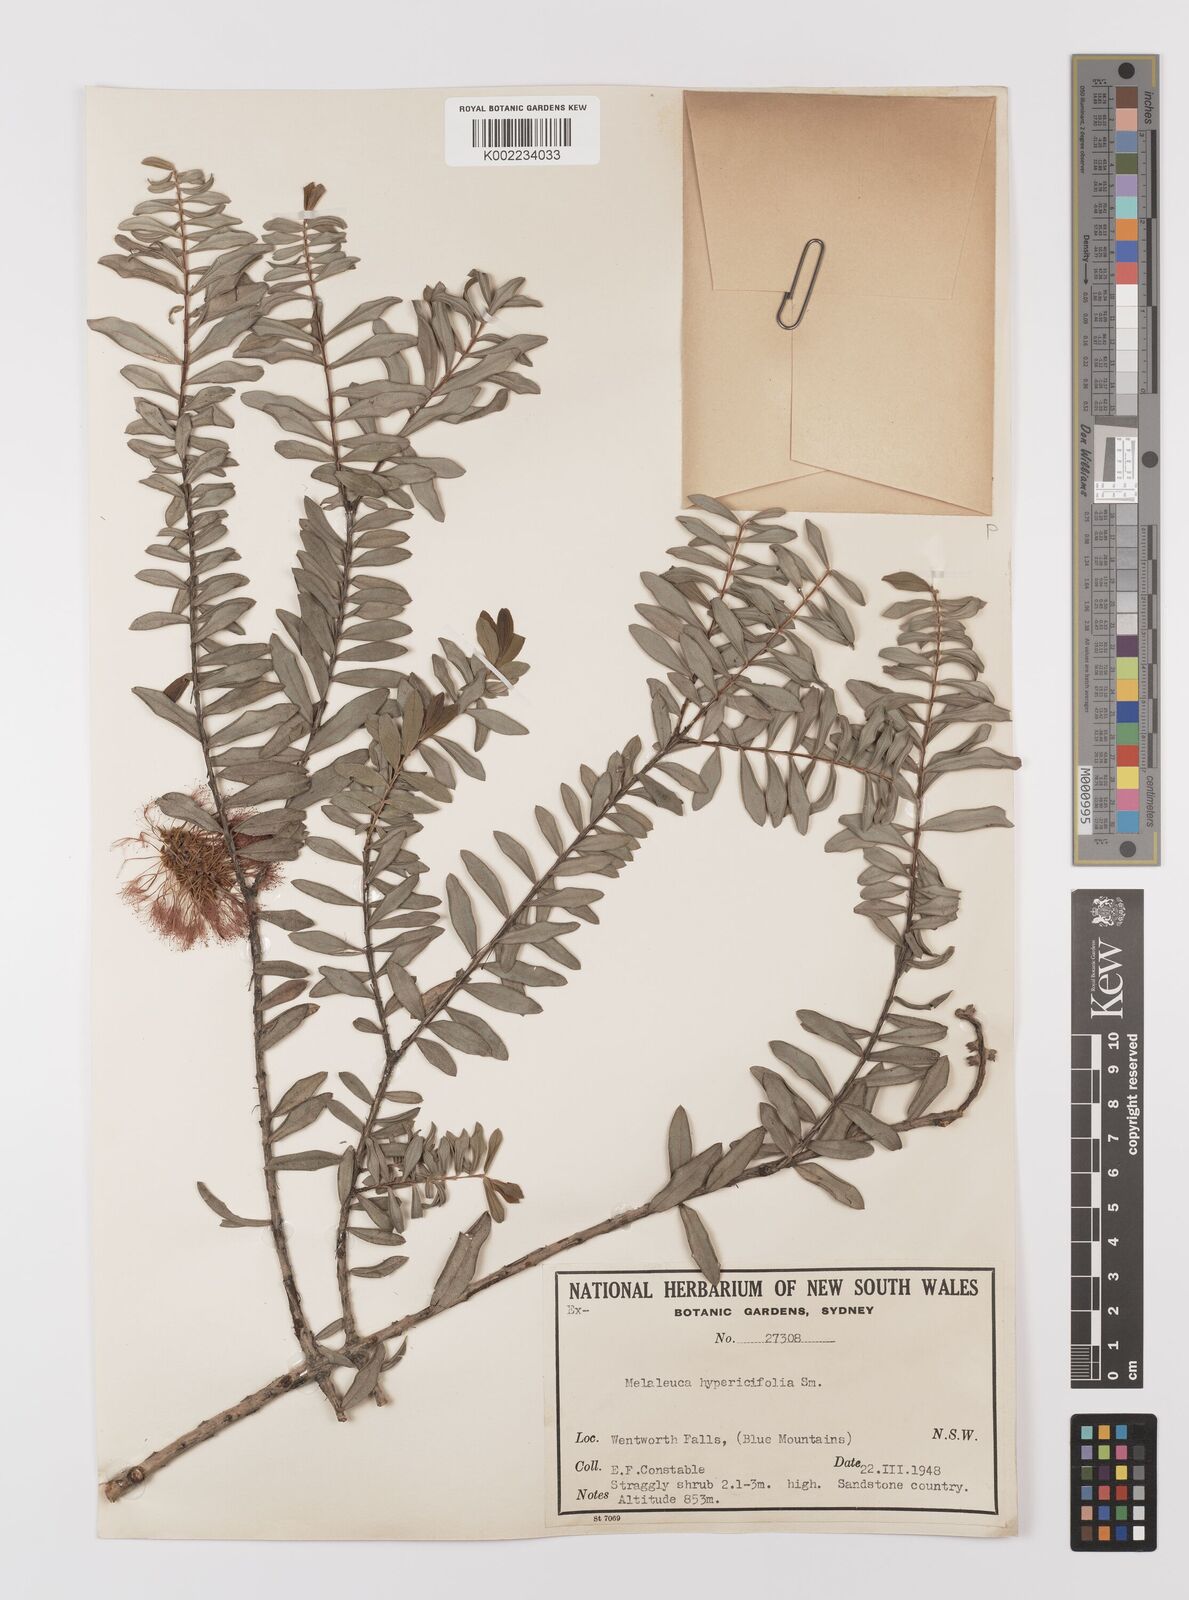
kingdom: Plantae
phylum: Tracheophyta
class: Magnoliopsida
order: Myrtales
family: Myrtaceae
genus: Melaleuca
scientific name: Melaleuca hypericifolia
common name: Red honey myrtle
